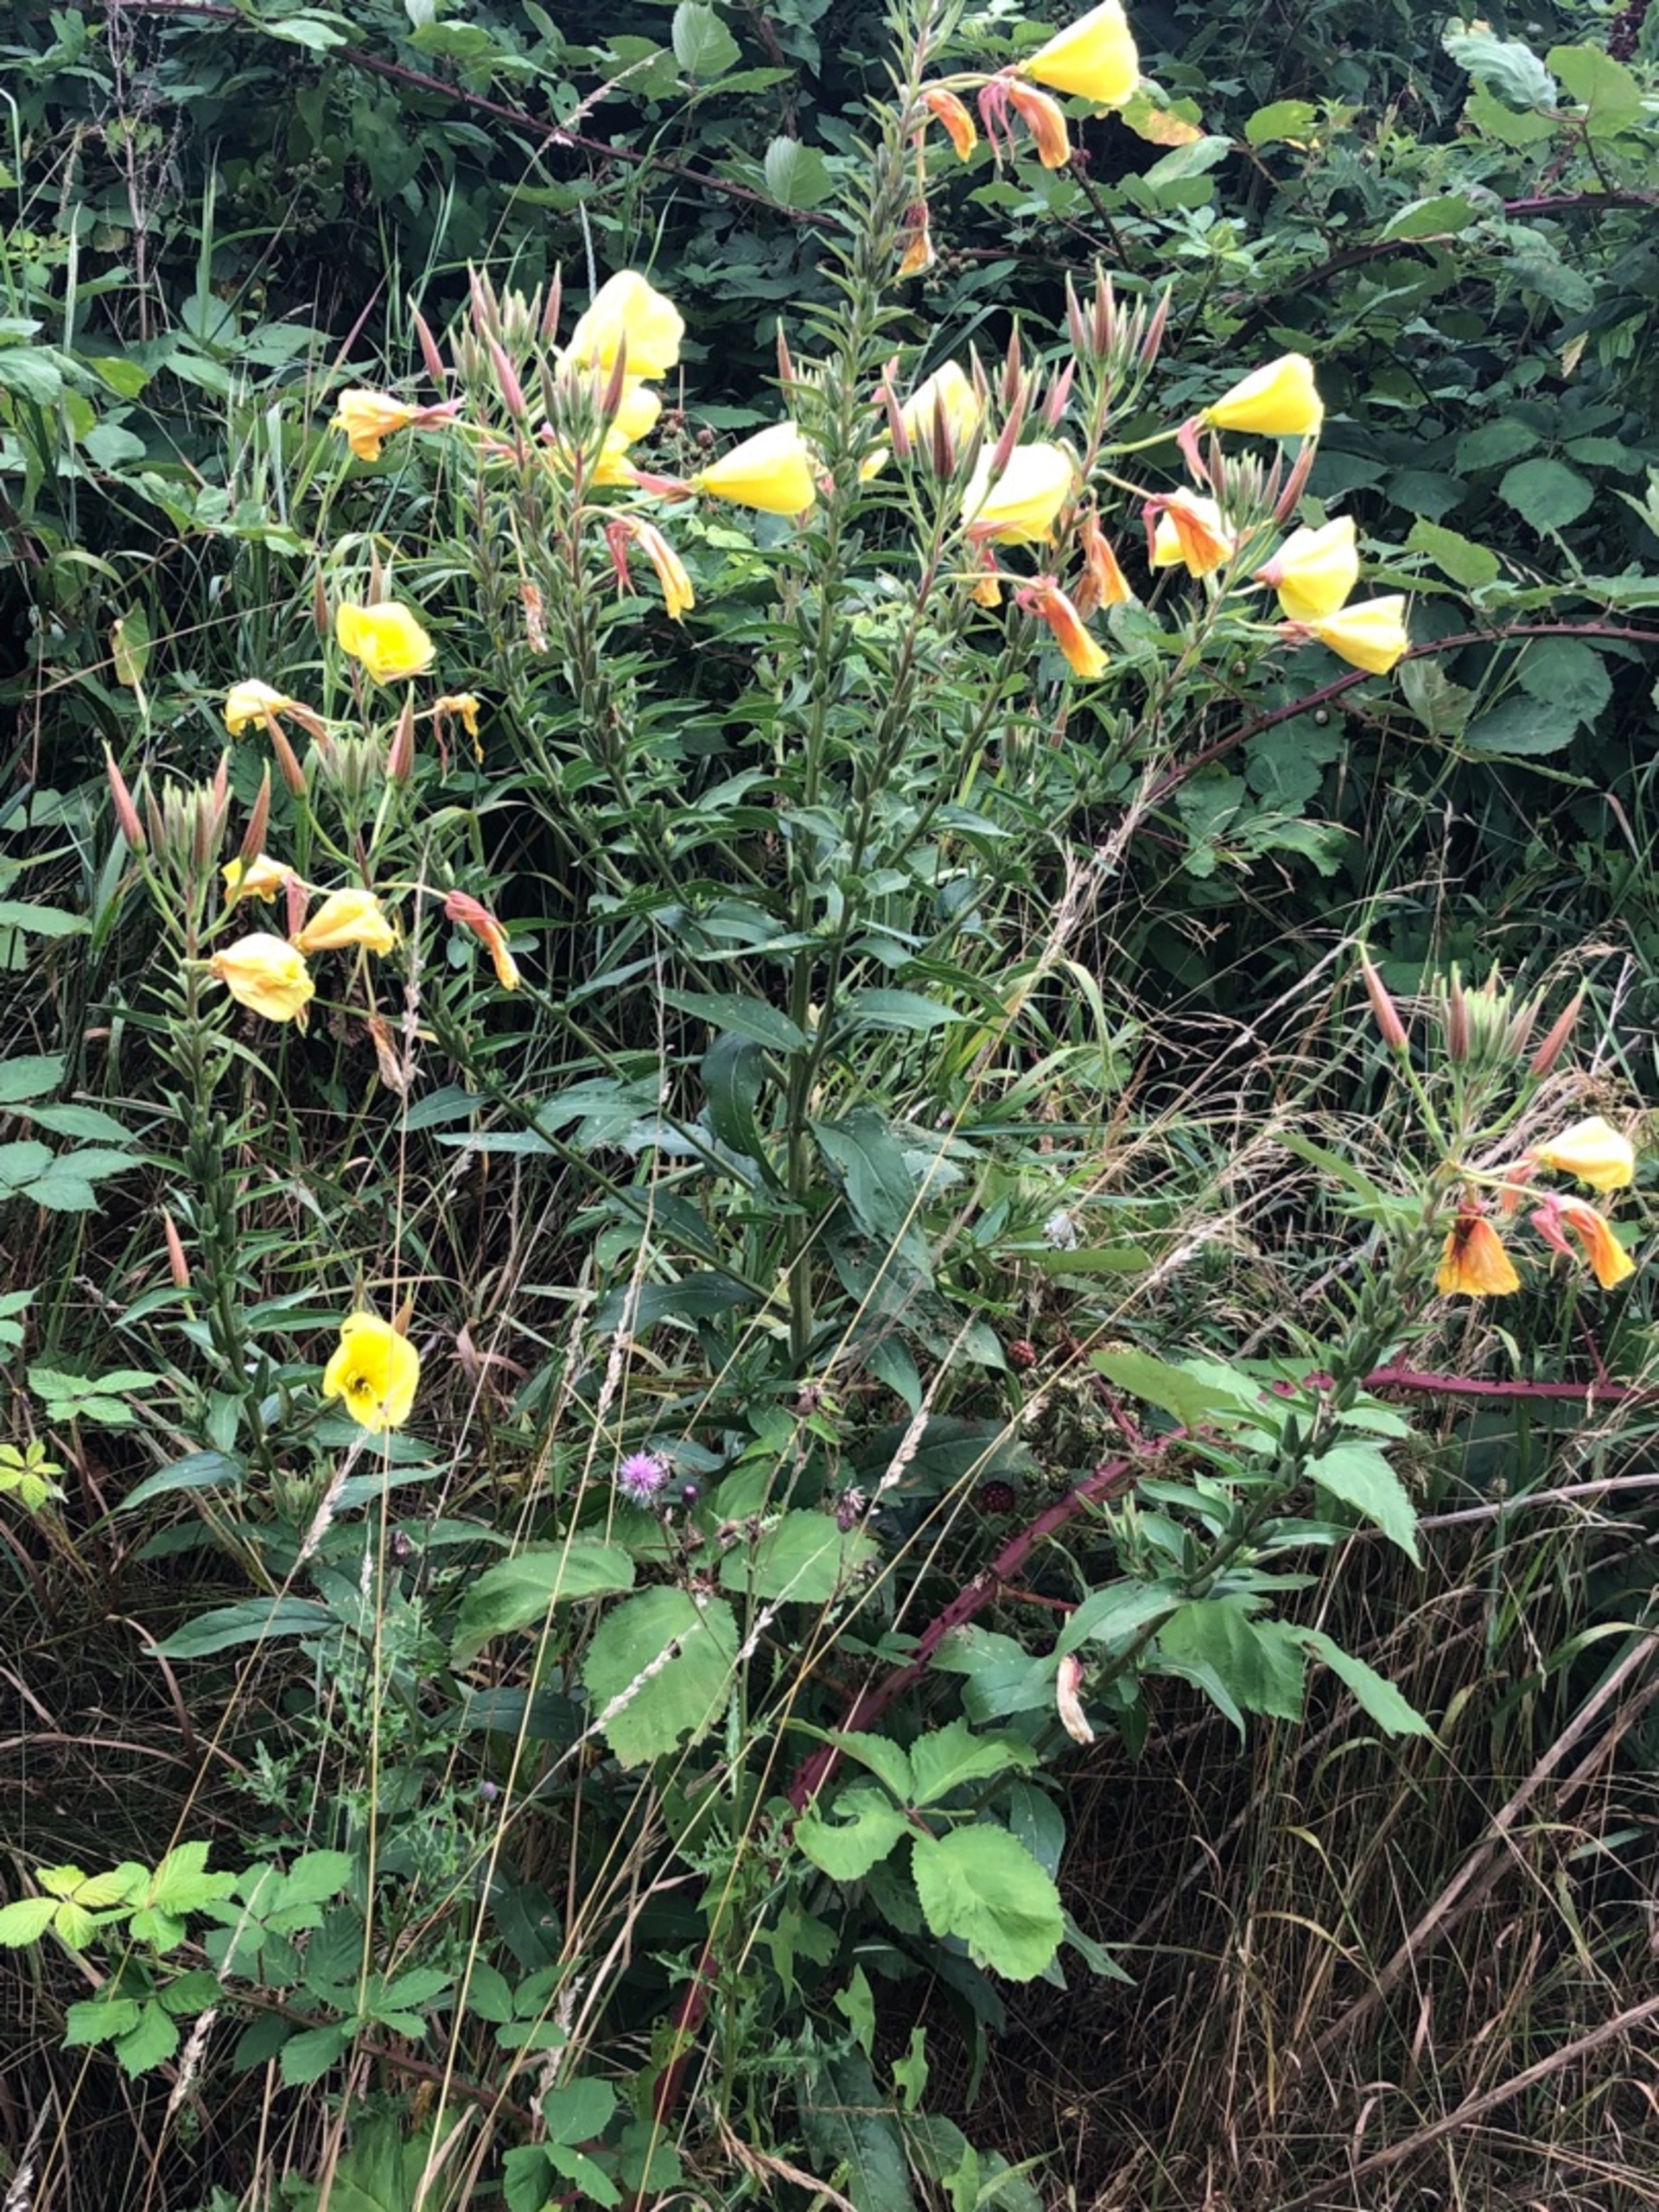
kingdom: Plantae
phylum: Tracheophyta
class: Magnoliopsida
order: Myrtales
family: Onagraceae
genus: Oenothera
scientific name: Oenothera glazioviana
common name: Kæmpe-natlys
